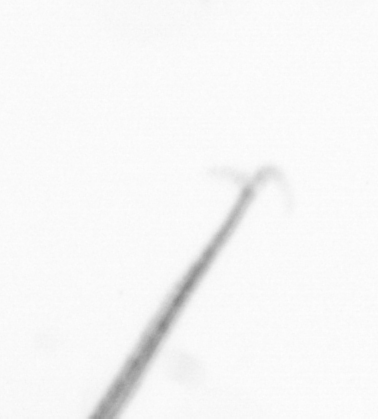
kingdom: Chromista
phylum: Ochrophyta
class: Bacillariophyceae
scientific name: Bacillariophyceae
